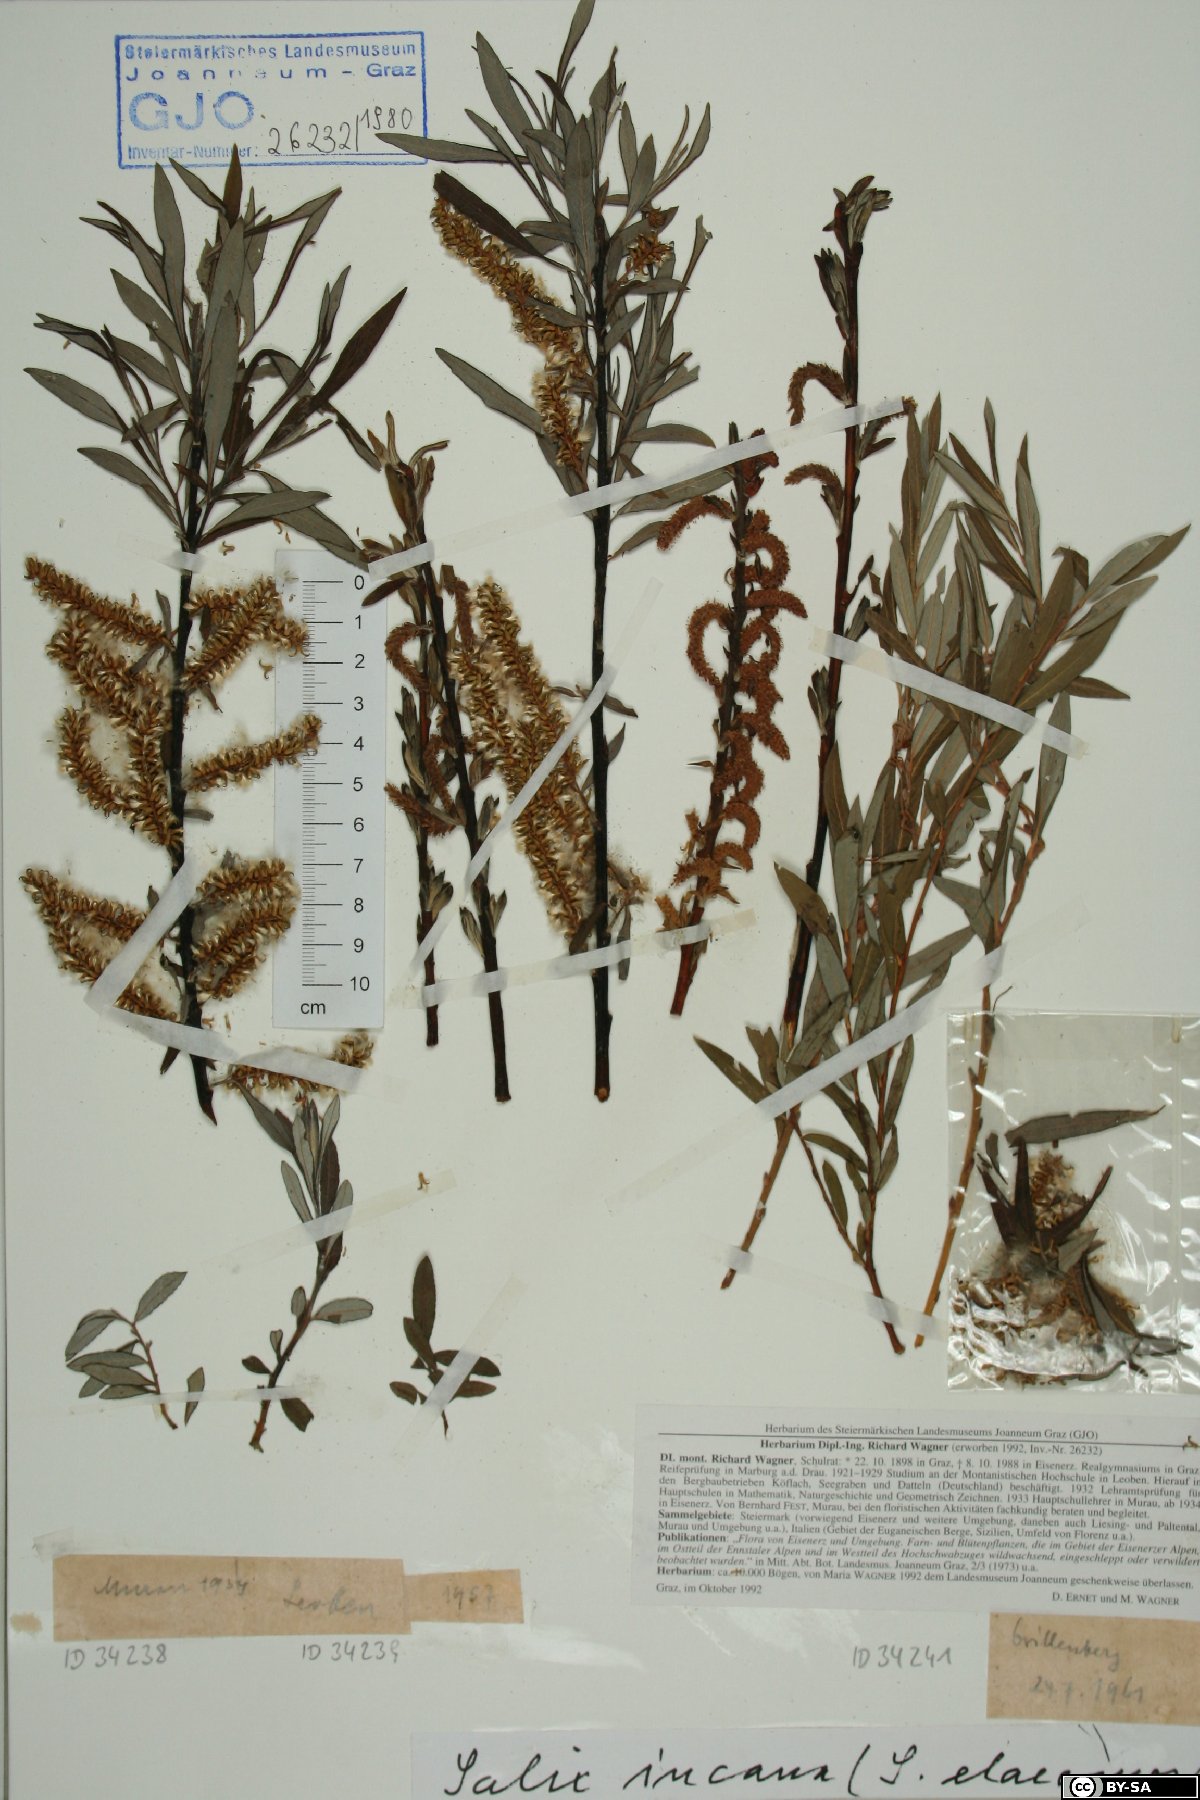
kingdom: Plantae
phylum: Tracheophyta
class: Magnoliopsida
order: Malpighiales
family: Salicaceae
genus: Salix
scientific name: Salix eleagnos
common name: Elaeagnus willow
